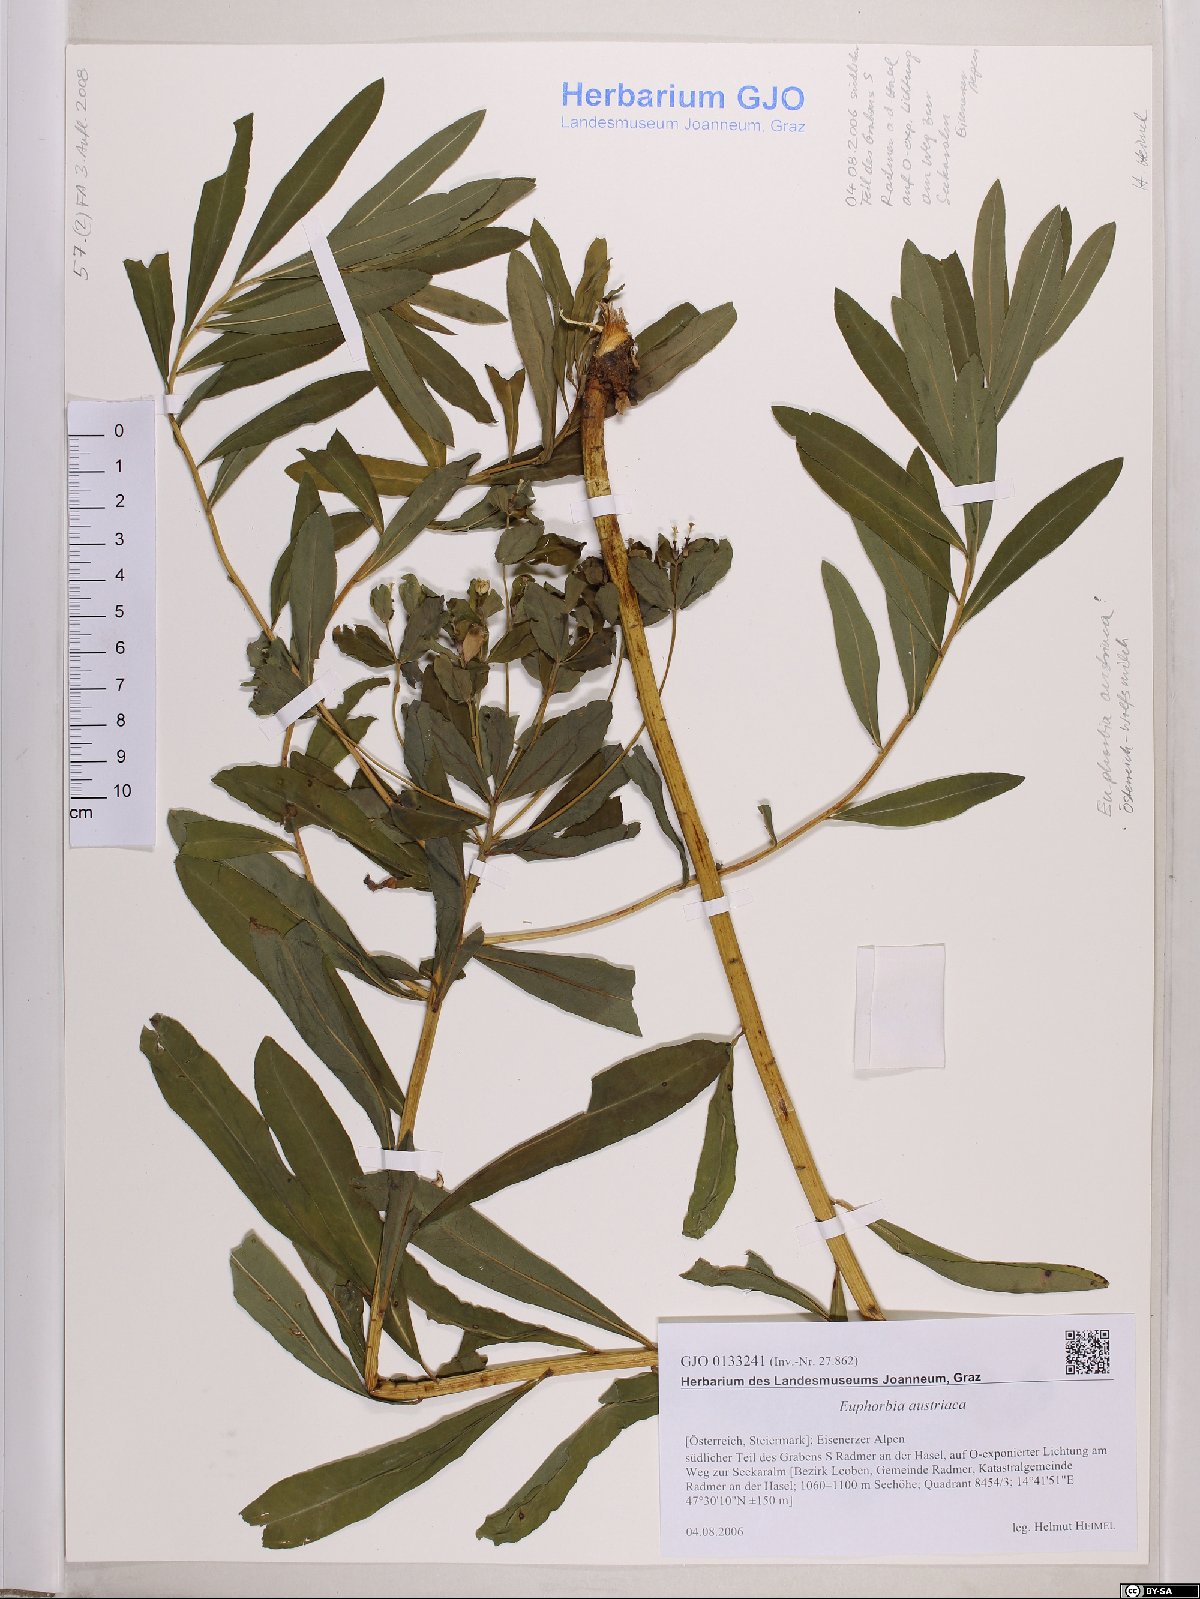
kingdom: Plantae
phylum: Tracheophyta
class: Magnoliopsida
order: Malpighiales
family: Euphorbiaceae
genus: Euphorbia
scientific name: Euphorbia austriaca
